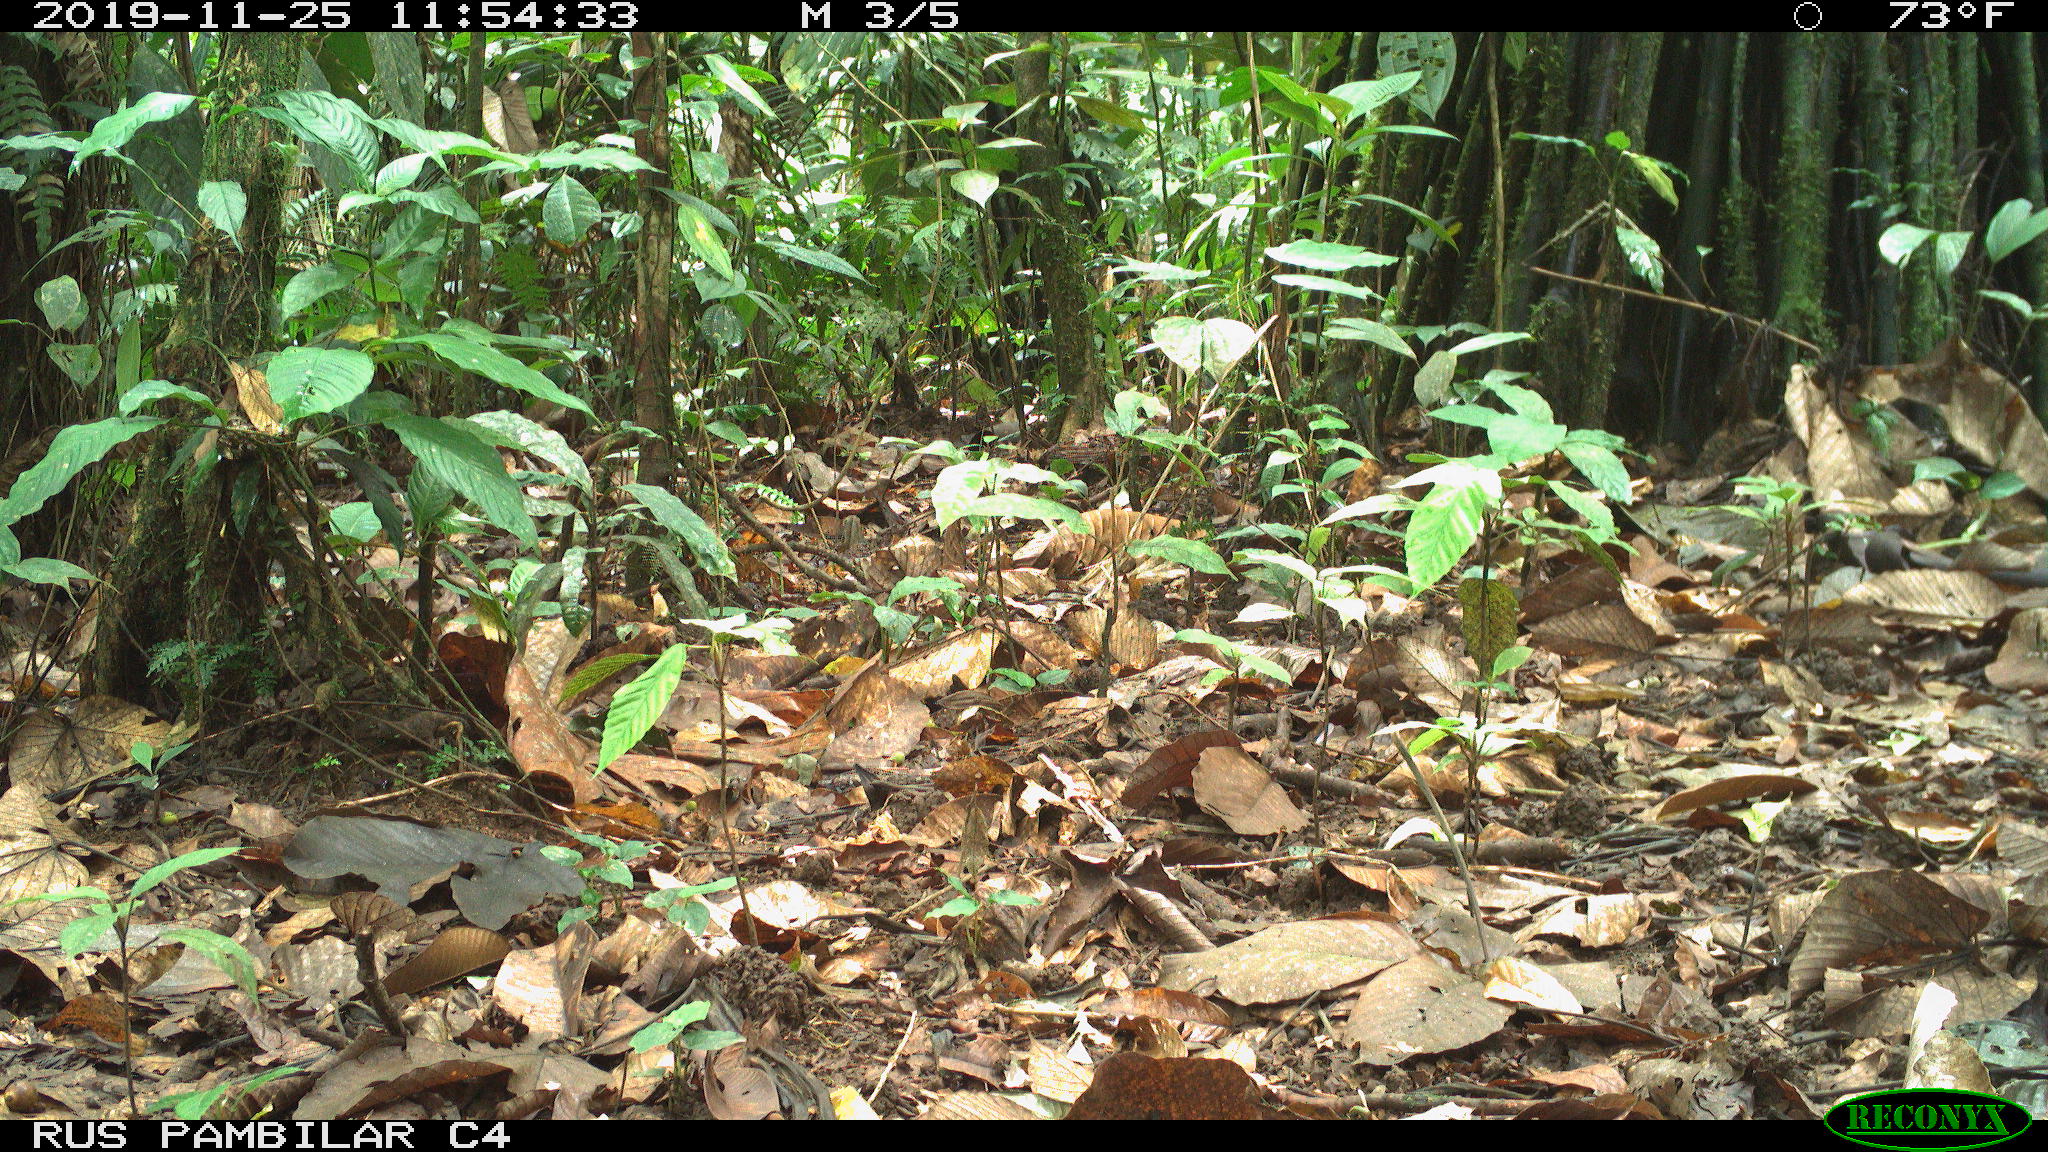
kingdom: Animalia
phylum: Chordata
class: Mammalia
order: Rodentia
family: Sciuridae
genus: Sciurus
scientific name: Sciurus granatensis
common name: Red-tailed squirrel
